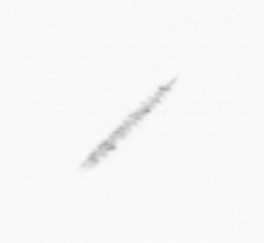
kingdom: Chromista
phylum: Ochrophyta
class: Bacillariophyceae
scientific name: Bacillariophyceae
